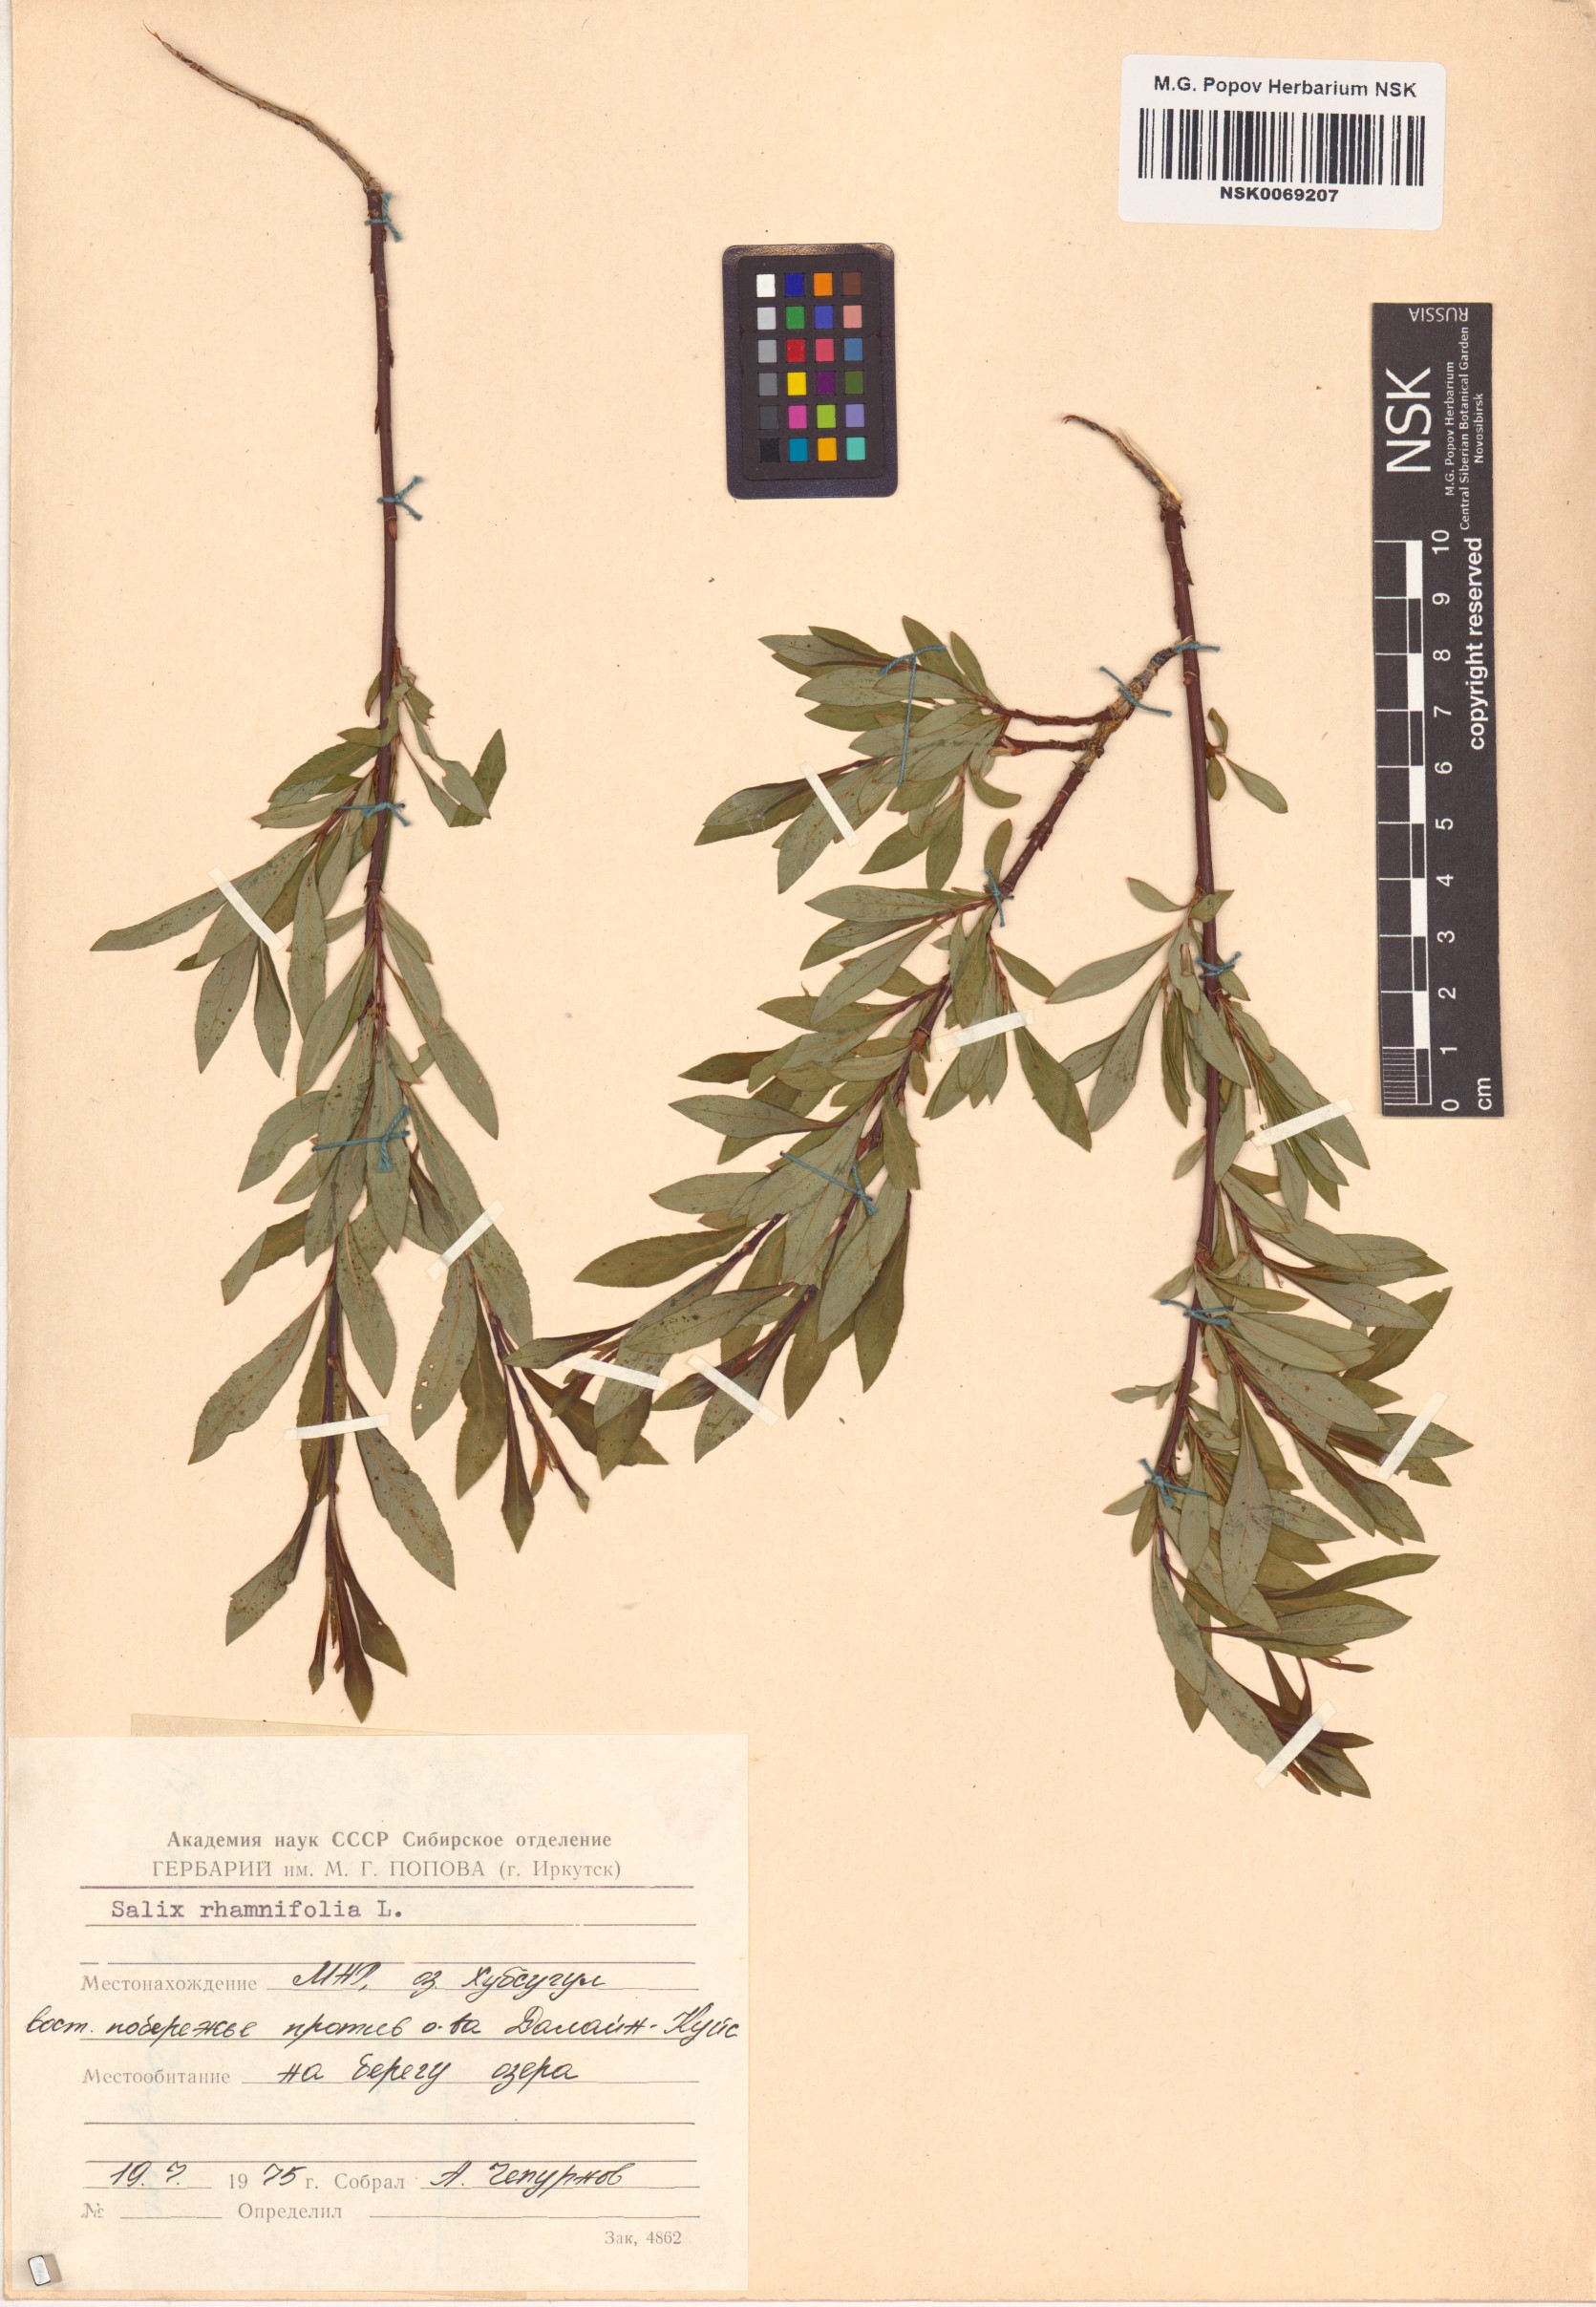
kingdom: Plantae
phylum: Tracheophyta
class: Magnoliopsida
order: Malpighiales
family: Salicaceae
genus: Salix
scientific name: Salix rhamnifolia
